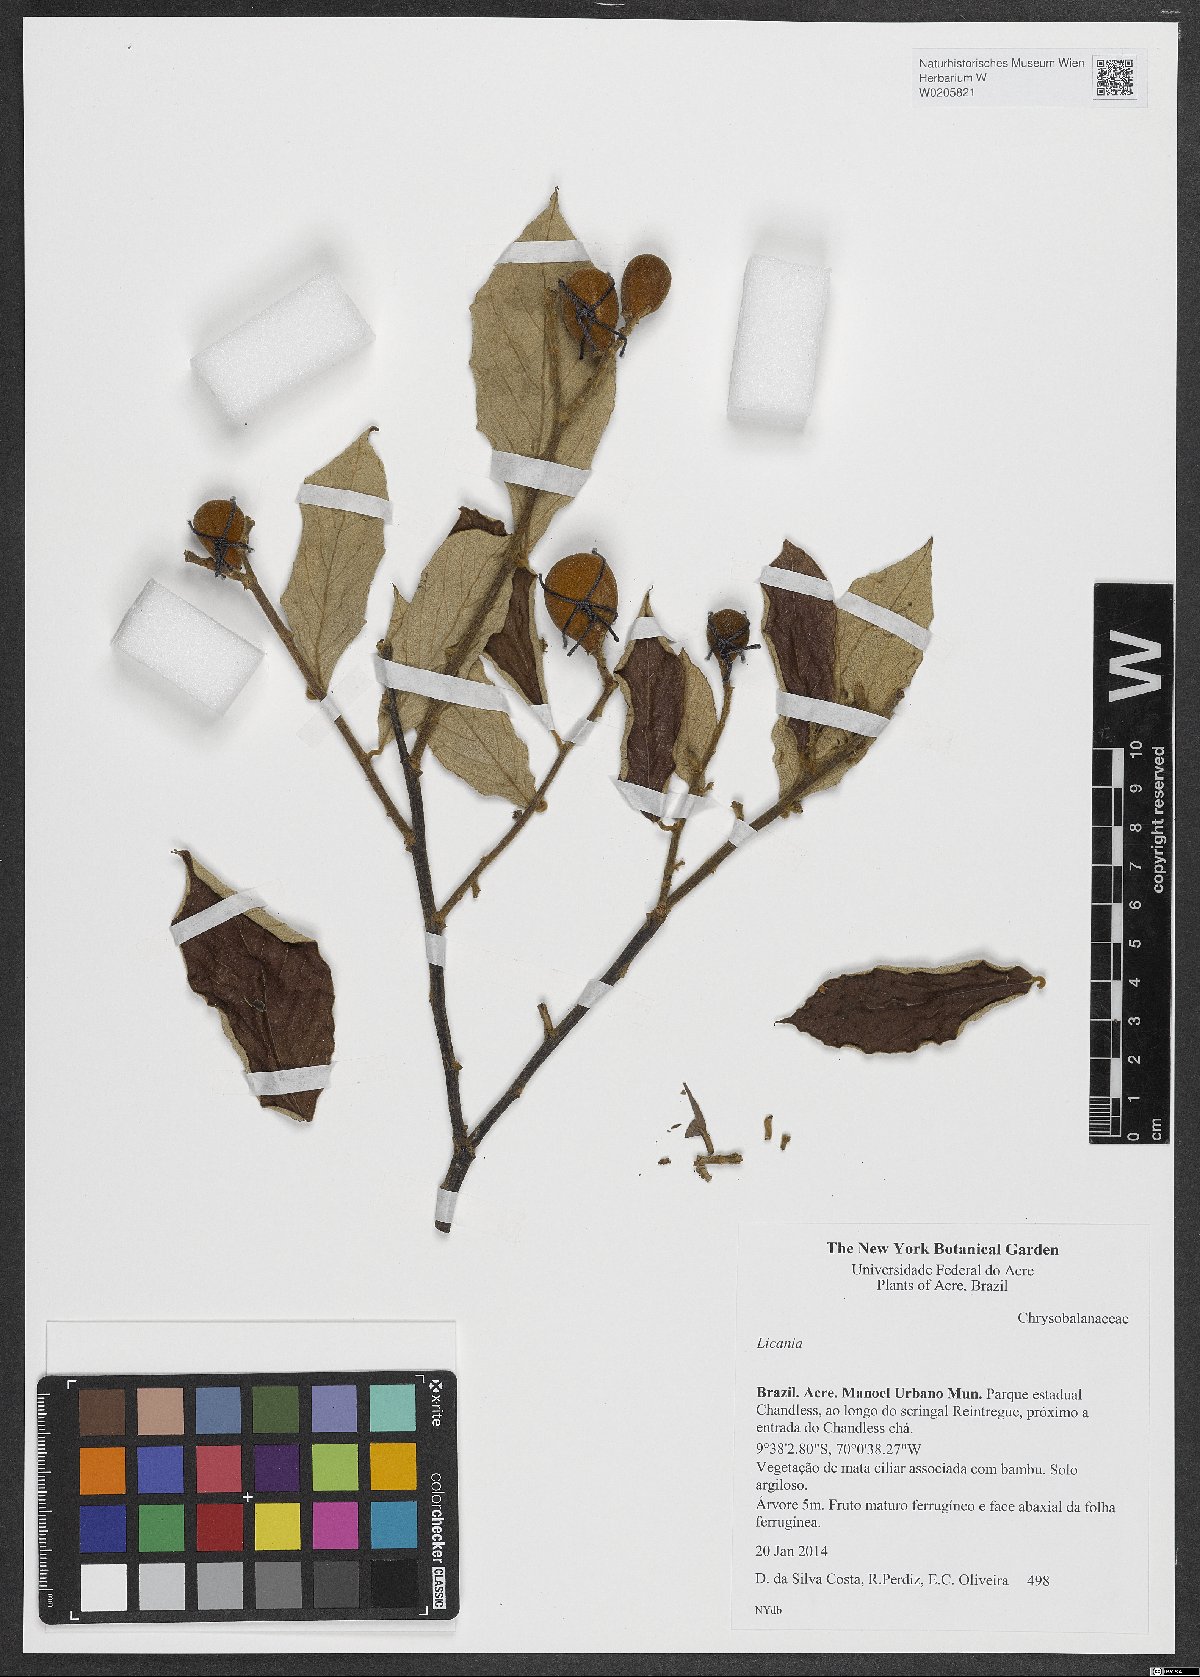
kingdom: Plantae
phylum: Tracheophyta
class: Magnoliopsida
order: Malpighiales
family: Chrysobalanaceae
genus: Licania
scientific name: Licania
